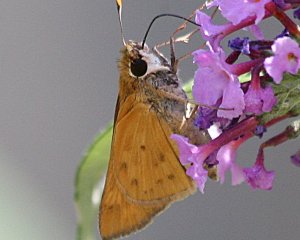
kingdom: Animalia
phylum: Arthropoda
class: Insecta
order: Lepidoptera
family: Hesperiidae
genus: Hylephila
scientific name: Hylephila phyleus
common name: Fiery Skipper
